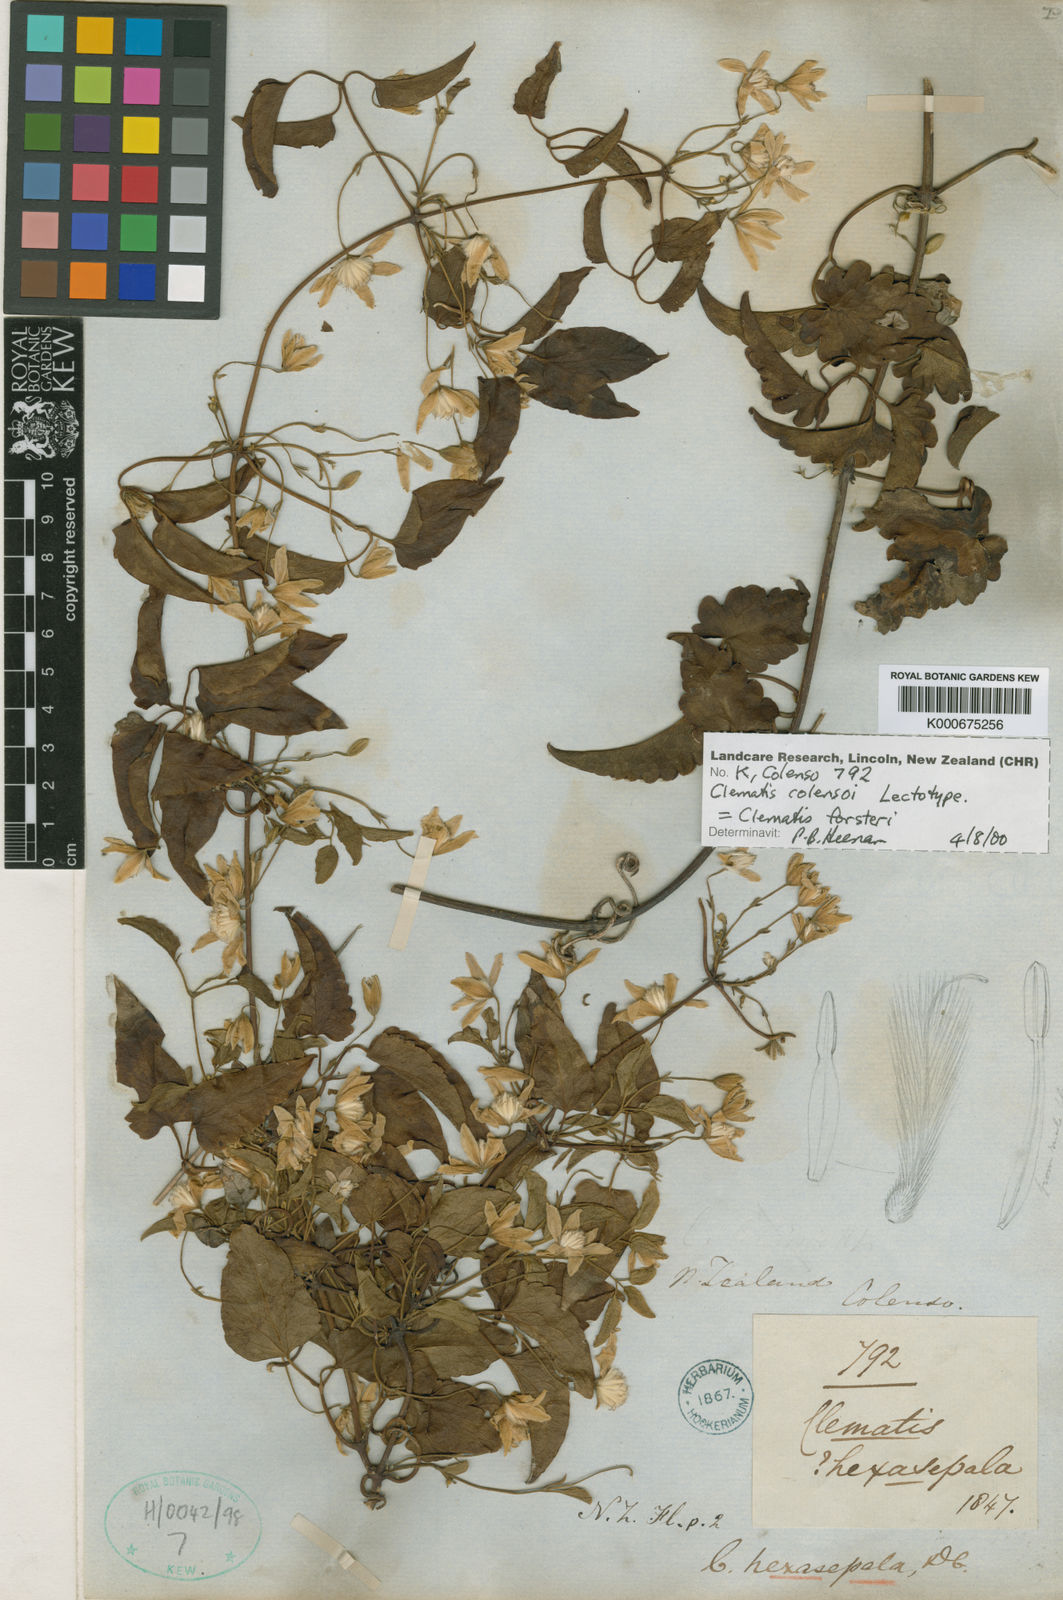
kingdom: Plantae
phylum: Tracheophyta
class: Magnoliopsida
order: Ranunculales
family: Ranunculaceae
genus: Clematis
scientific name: Clematis forsteri
